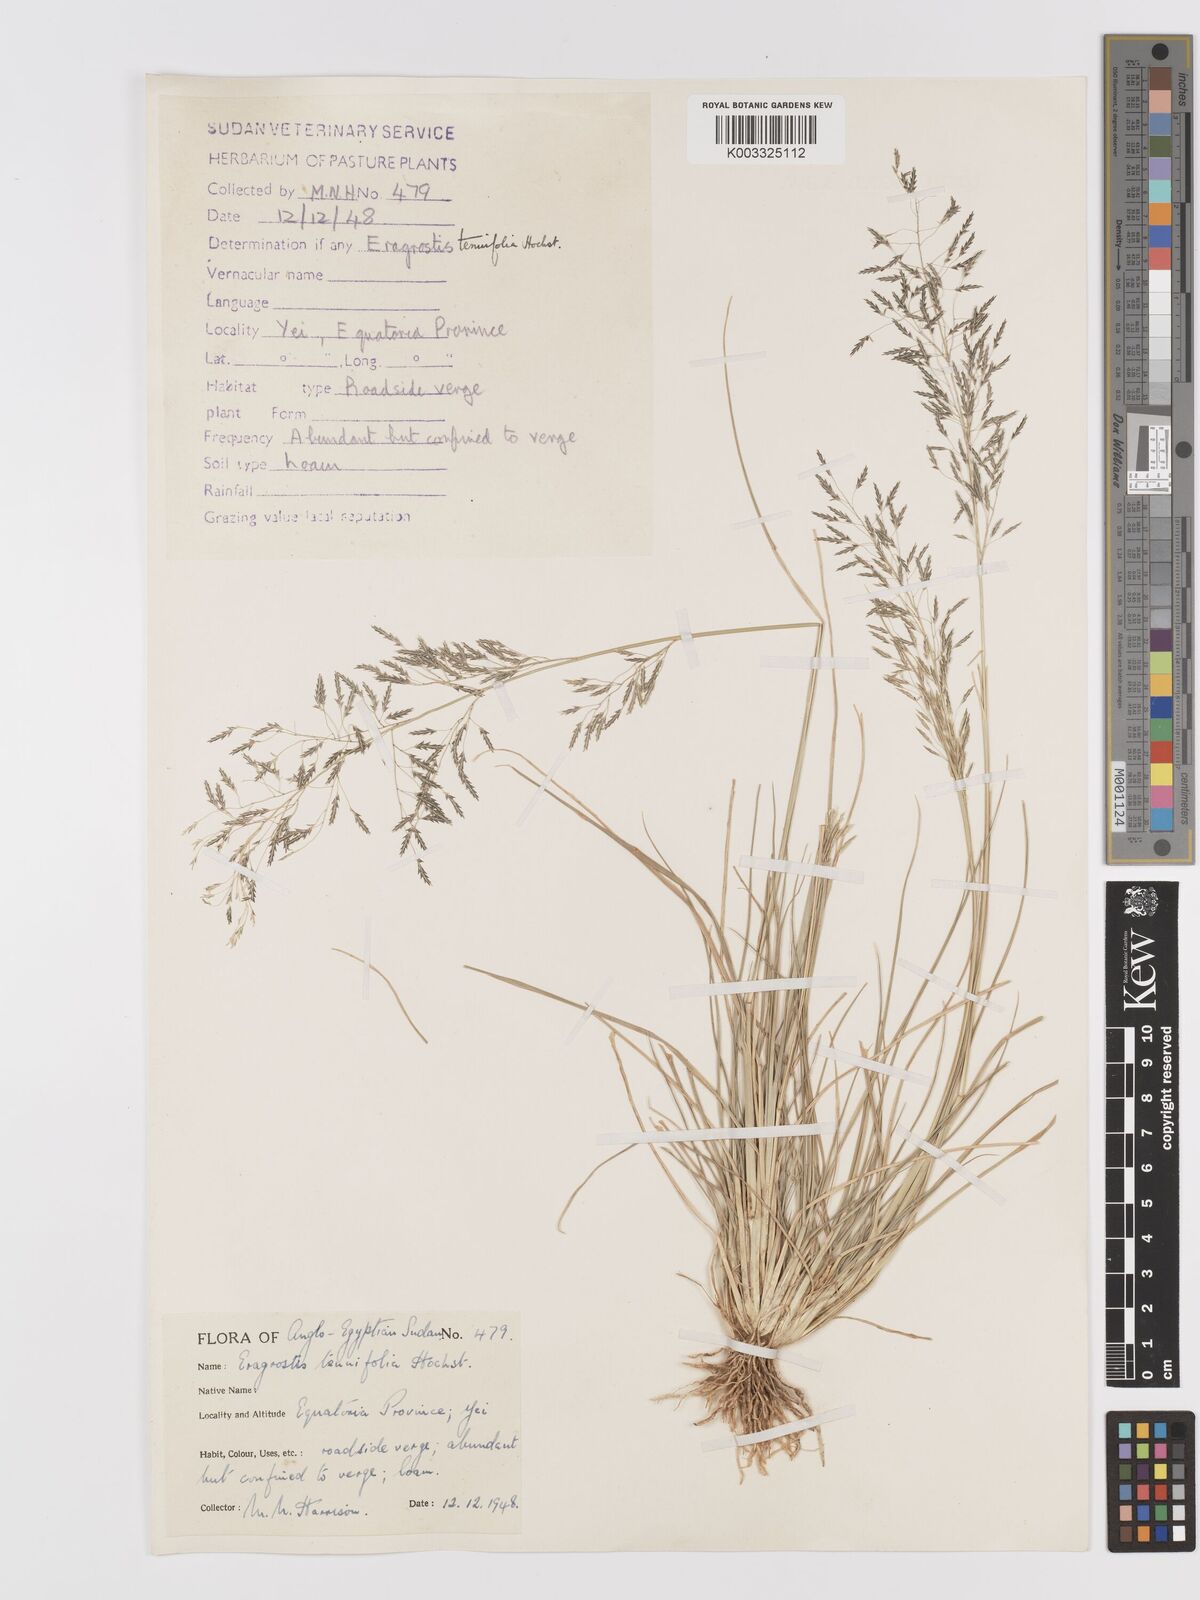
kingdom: Plantae
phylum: Tracheophyta
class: Liliopsida
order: Poales
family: Poaceae
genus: Eragrostis
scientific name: Eragrostis tenuifolia
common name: Elastic grass
